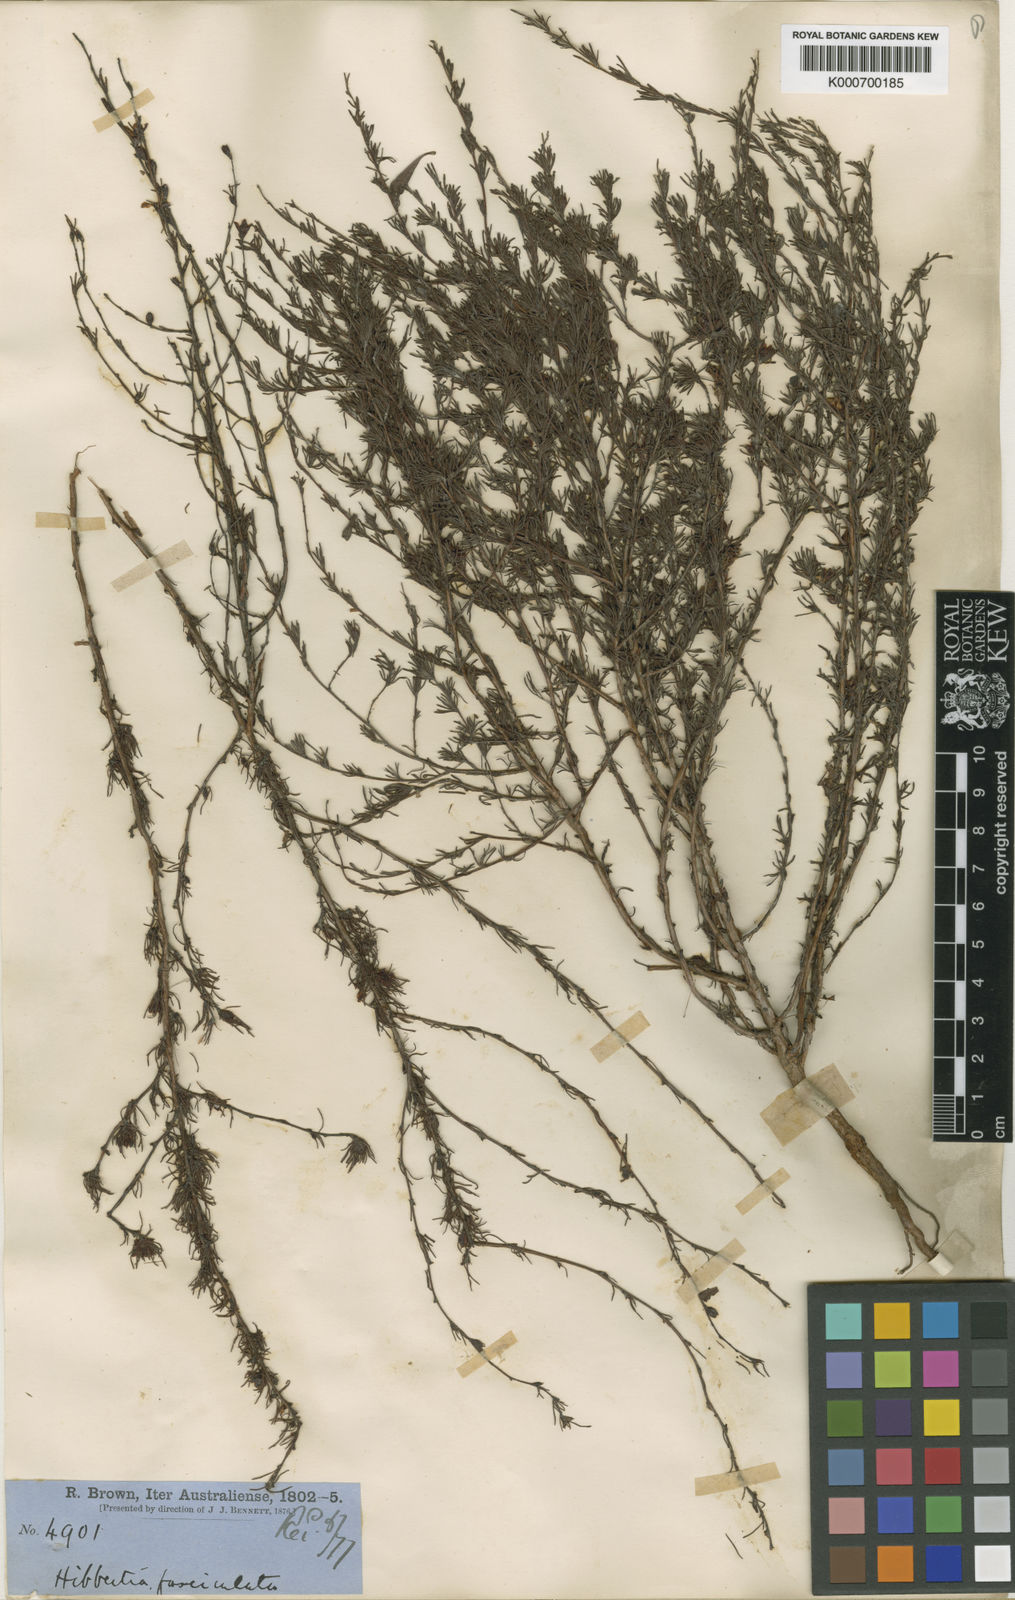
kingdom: Plantae
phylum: Tracheophyta
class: Magnoliopsida
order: Dilleniales
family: Dilleniaceae
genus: Hibbertia
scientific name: Hibbertia fasciculata
